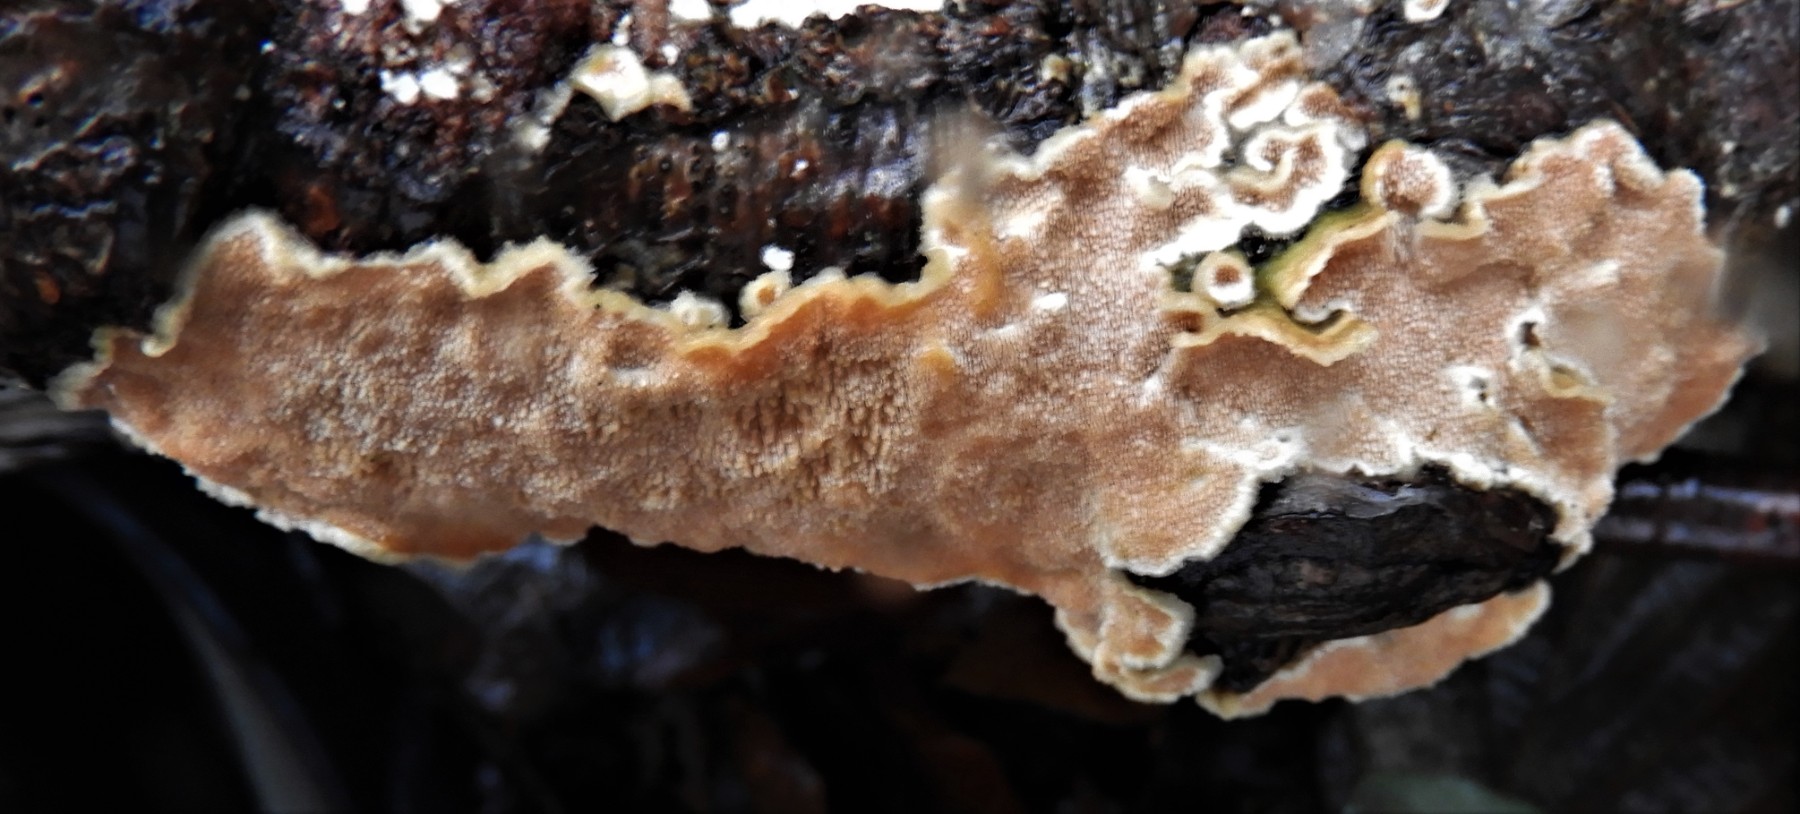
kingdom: Fungi
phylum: Basidiomycota
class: Agaricomycetes
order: Polyporales
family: Steccherinaceae
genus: Steccherinum
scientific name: Steccherinum ochraceum
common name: almindelig skønpig
